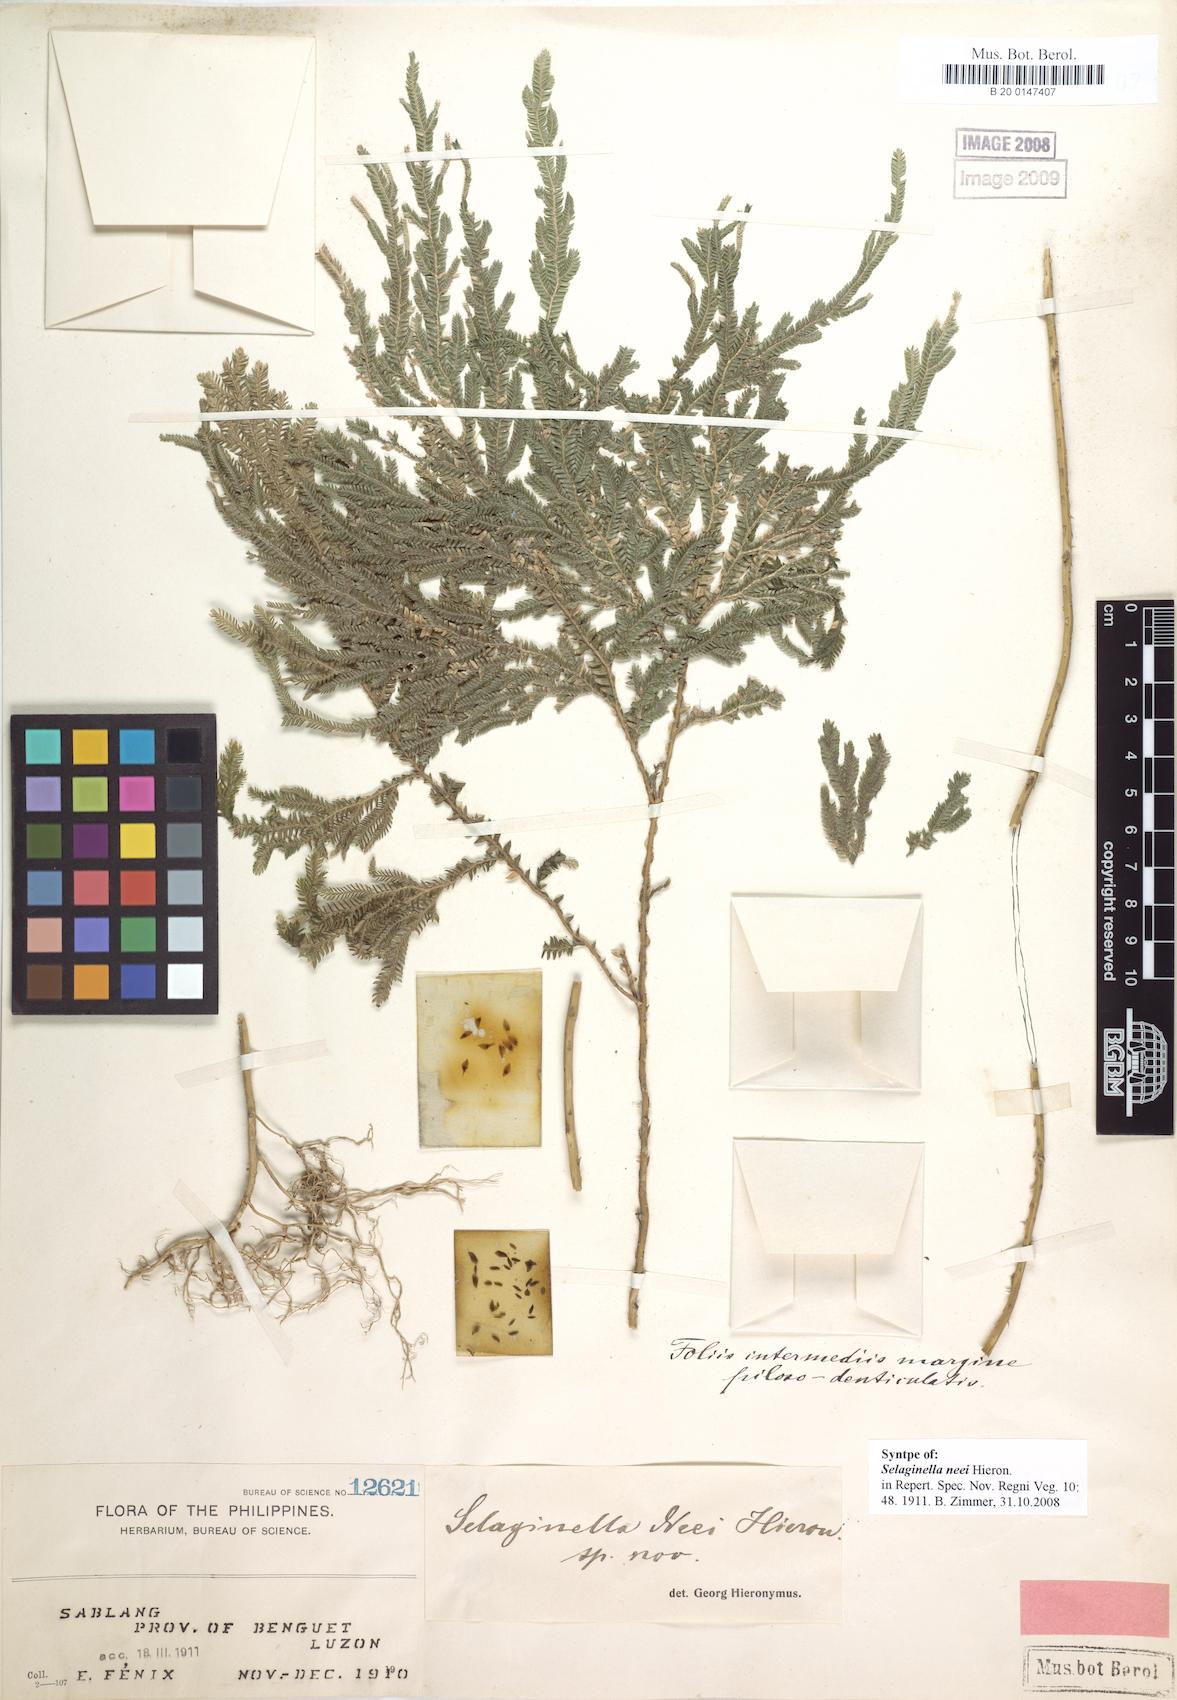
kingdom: Plantae
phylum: Tracheophyta
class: Lycopodiopsida
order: Selaginellales
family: Selaginellaceae
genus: Selaginella
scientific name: Selaginella neei
